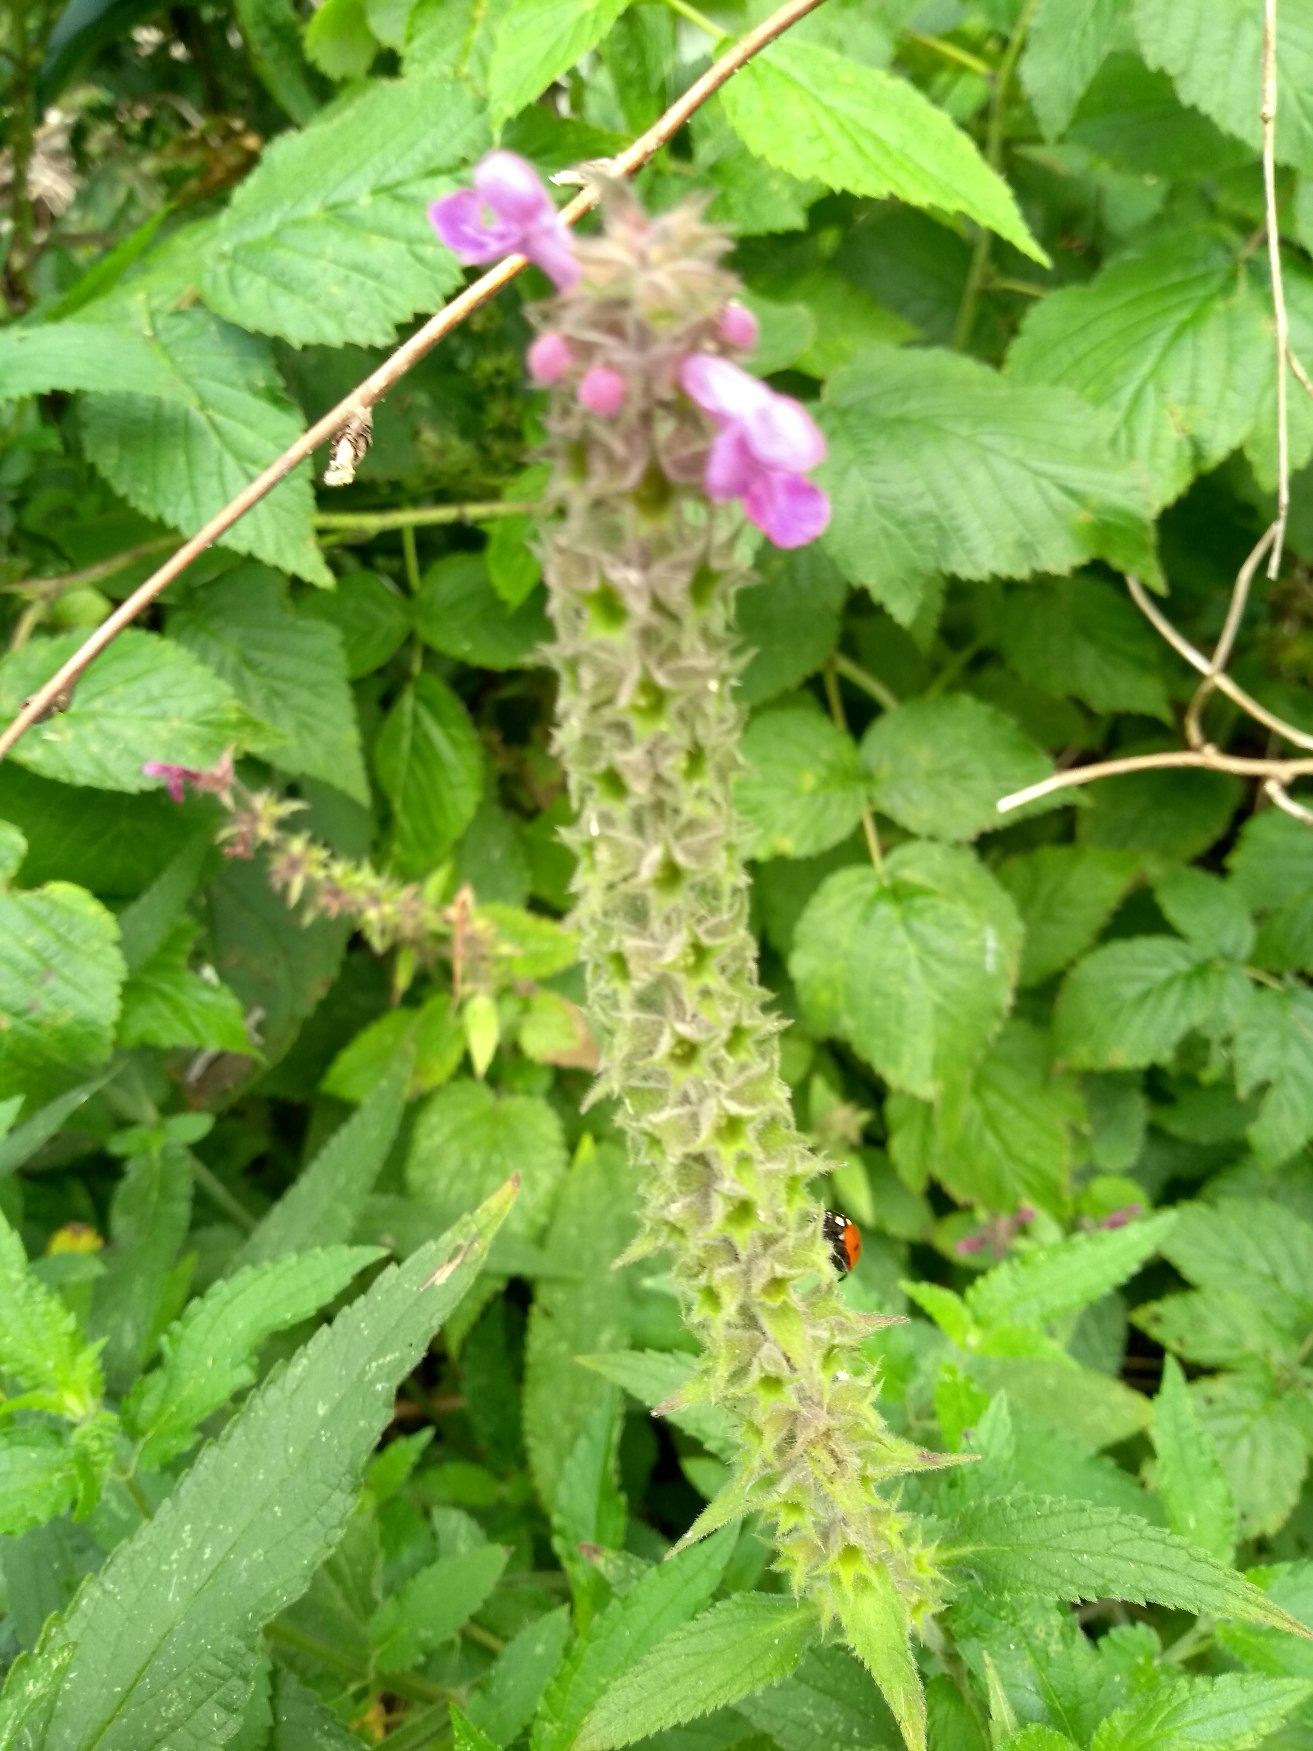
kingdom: Plantae
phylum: Tracheophyta
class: Magnoliopsida
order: Lamiales
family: Lamiaceae
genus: Stachys
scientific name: Stachys sylvatica
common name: Skov-galtetand
